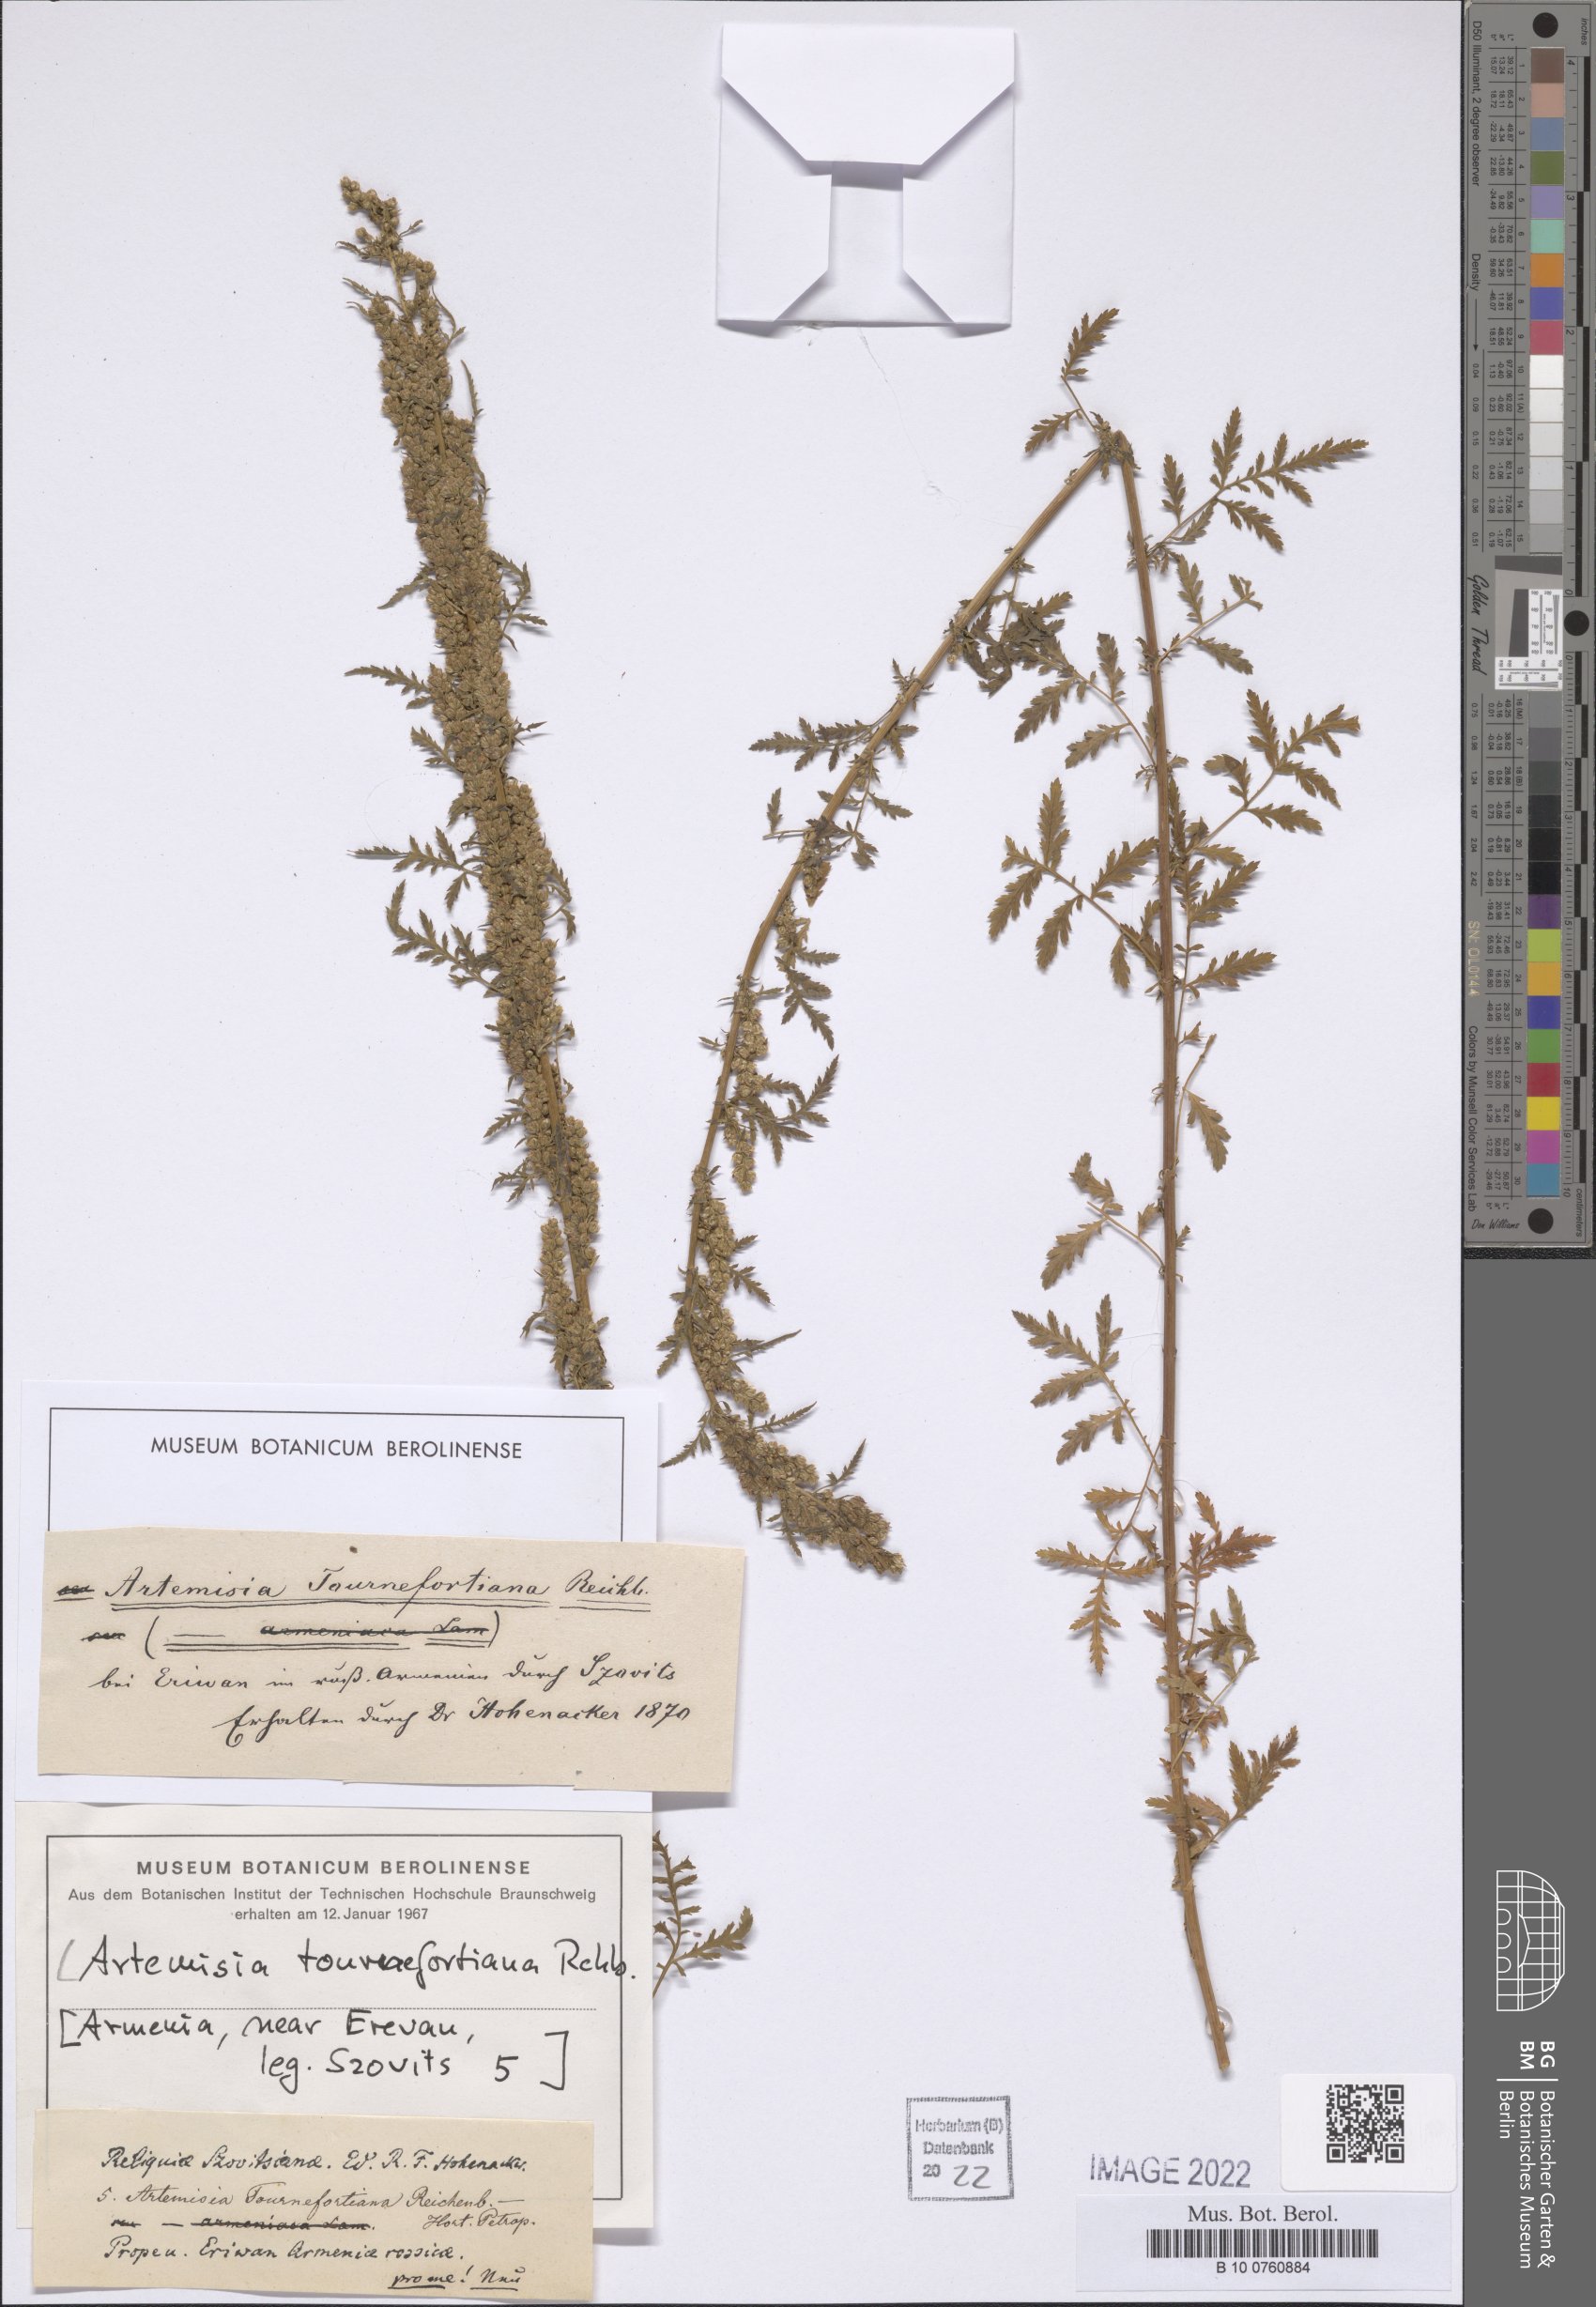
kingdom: Plantae
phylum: Tracheophyta
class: Magnoliopsida
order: Asterales
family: Asteraceae
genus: Artemisia
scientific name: Artemisia tournefortiana
